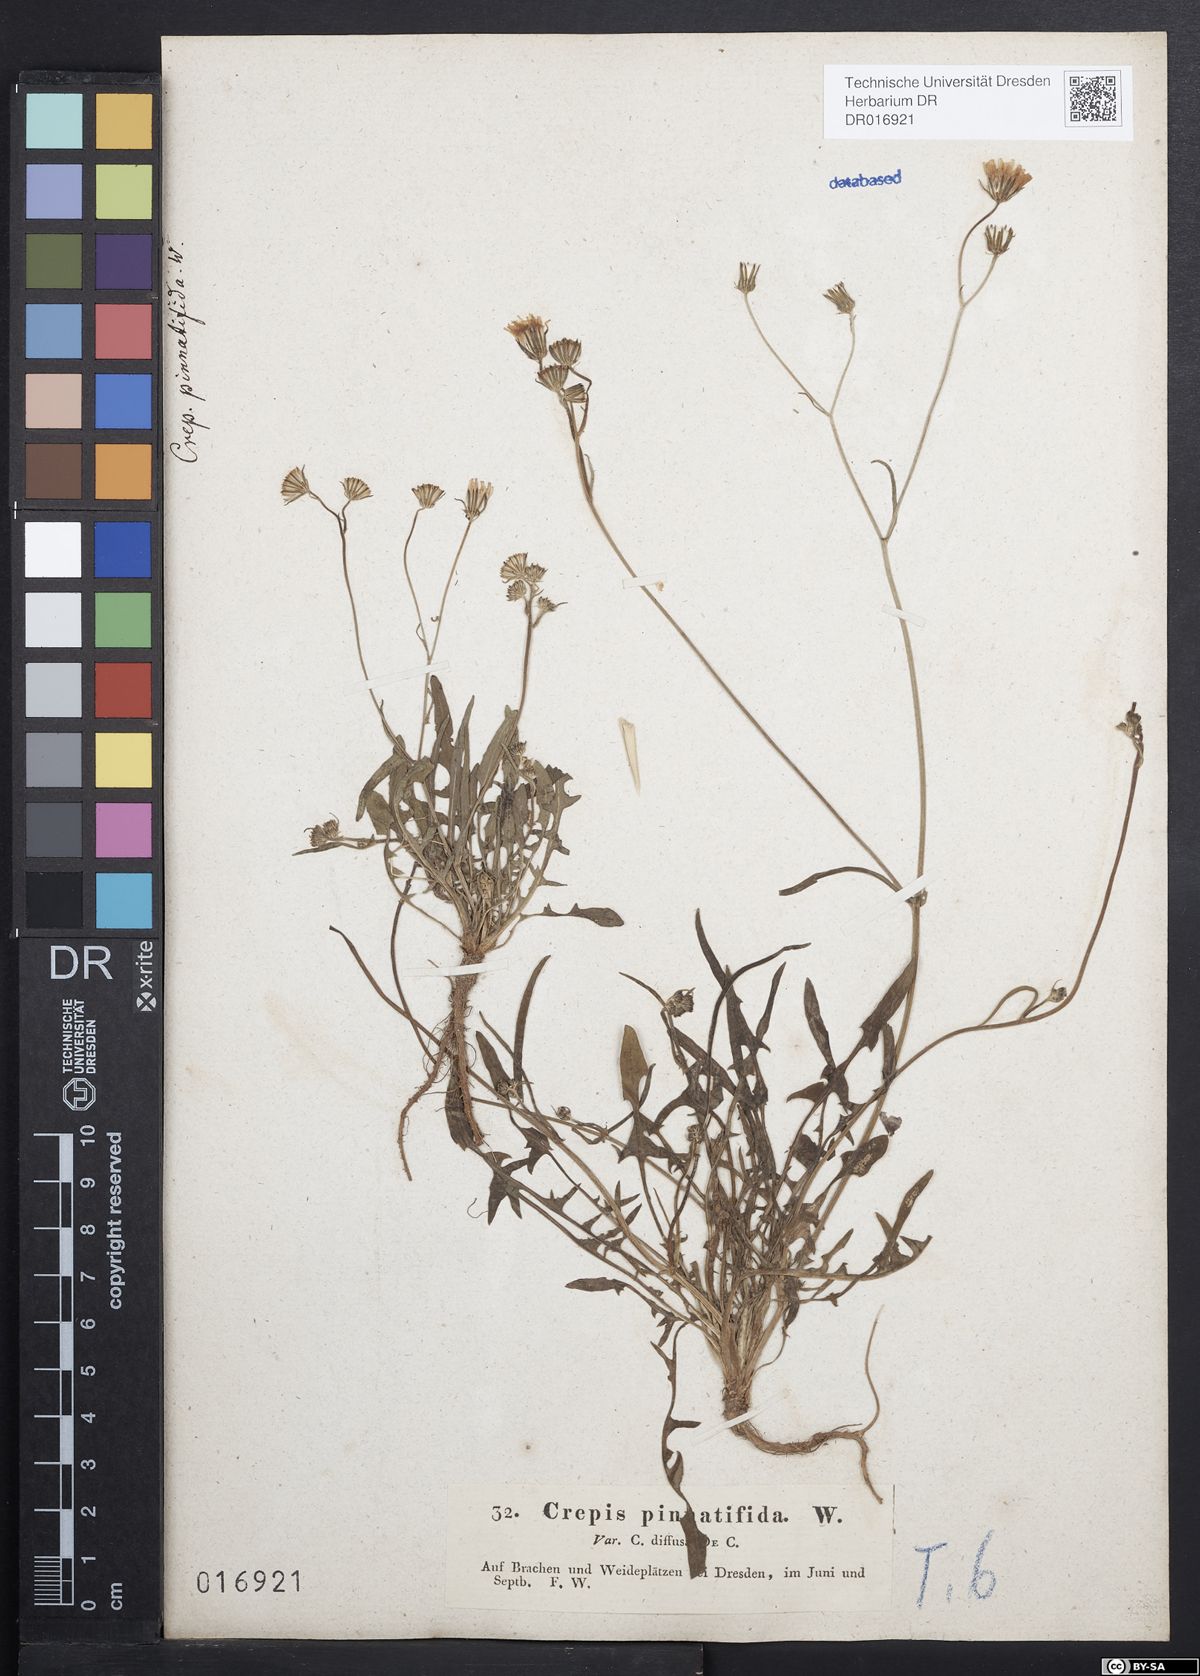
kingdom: Plantae
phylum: Tracheophyta
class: Magnoliopsida
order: Asterales
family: Asteraceae
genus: Crepis
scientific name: Crepis capillaris
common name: Smooth hawksbeard
